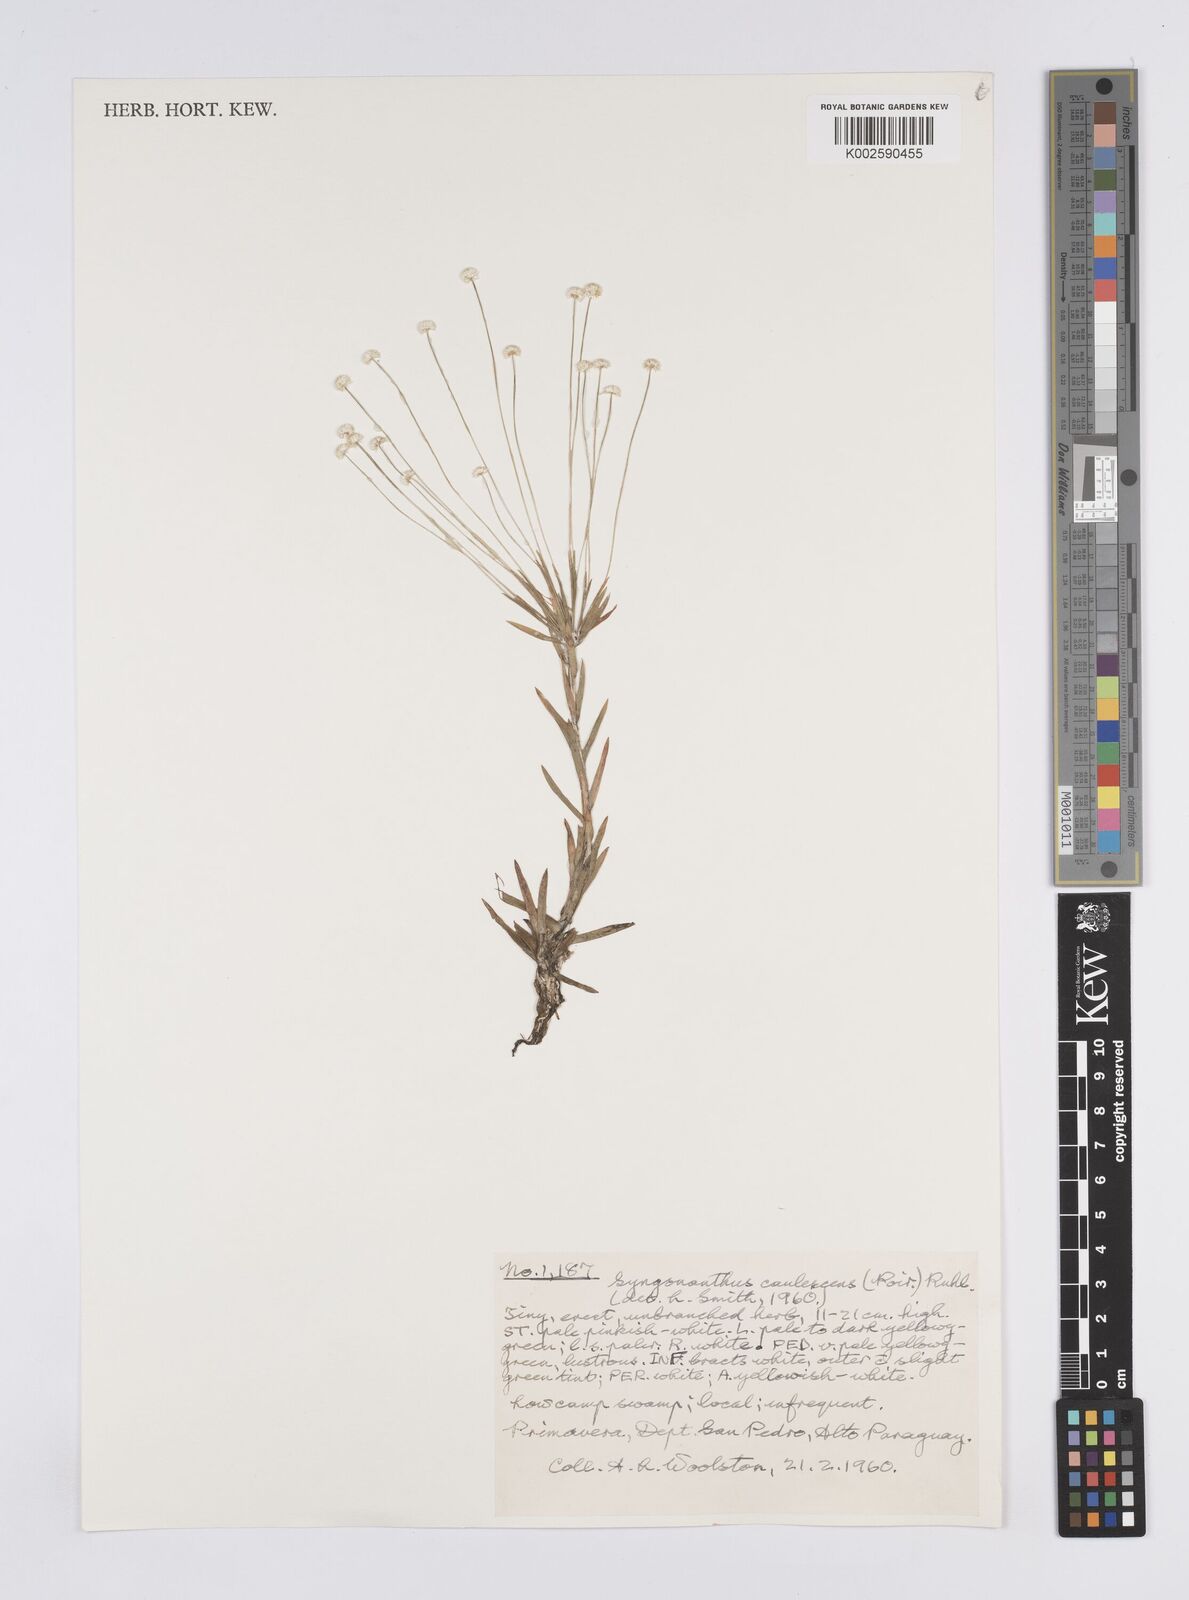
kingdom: Plantae
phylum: Tracheophyta
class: Liliopsida
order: Poales
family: Eriocaulaceae
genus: Syngonanthus
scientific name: Syngonanthus caulescens
